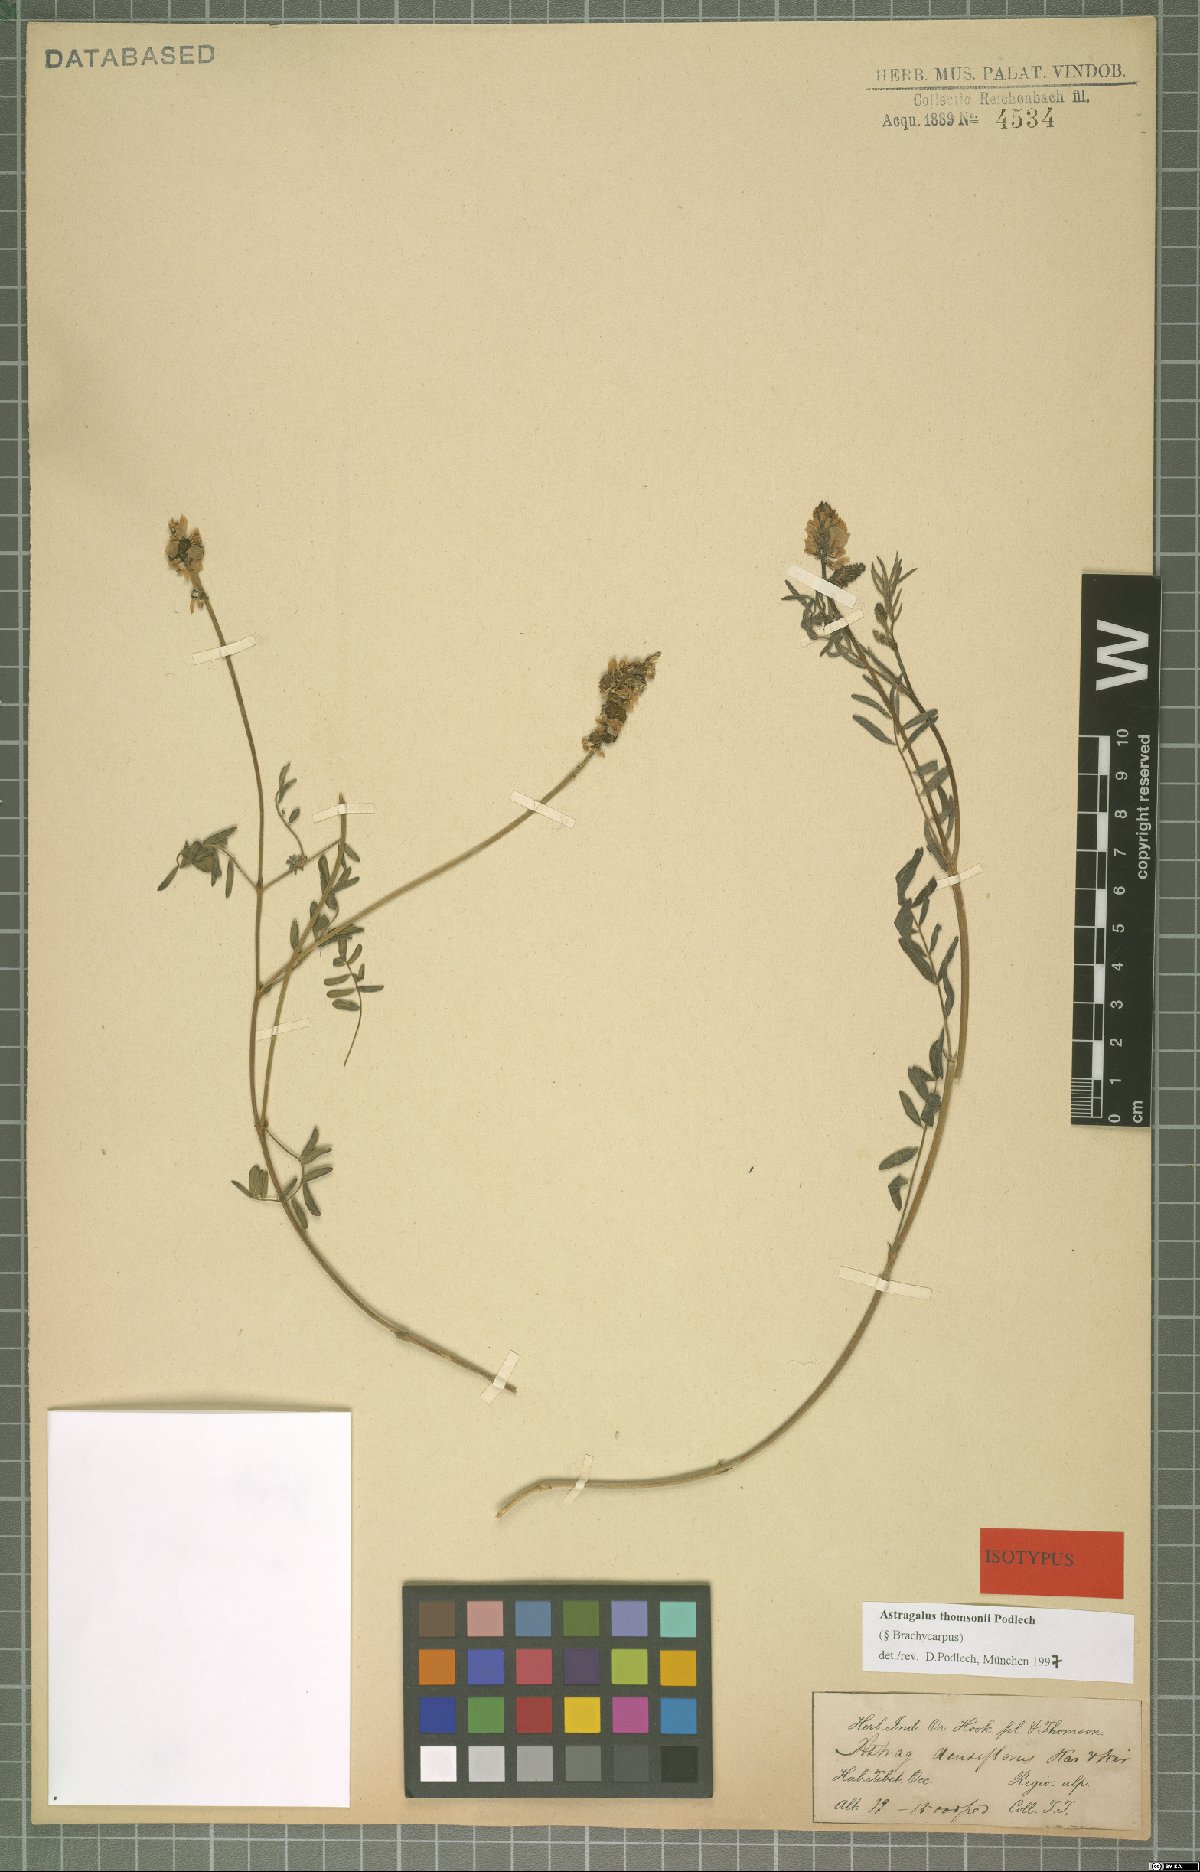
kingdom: Plantae
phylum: Tracheophyta
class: Magnoliopsida
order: Fabales
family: Fabaceae
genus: Astragalus
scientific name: Astragalus thomsonii
